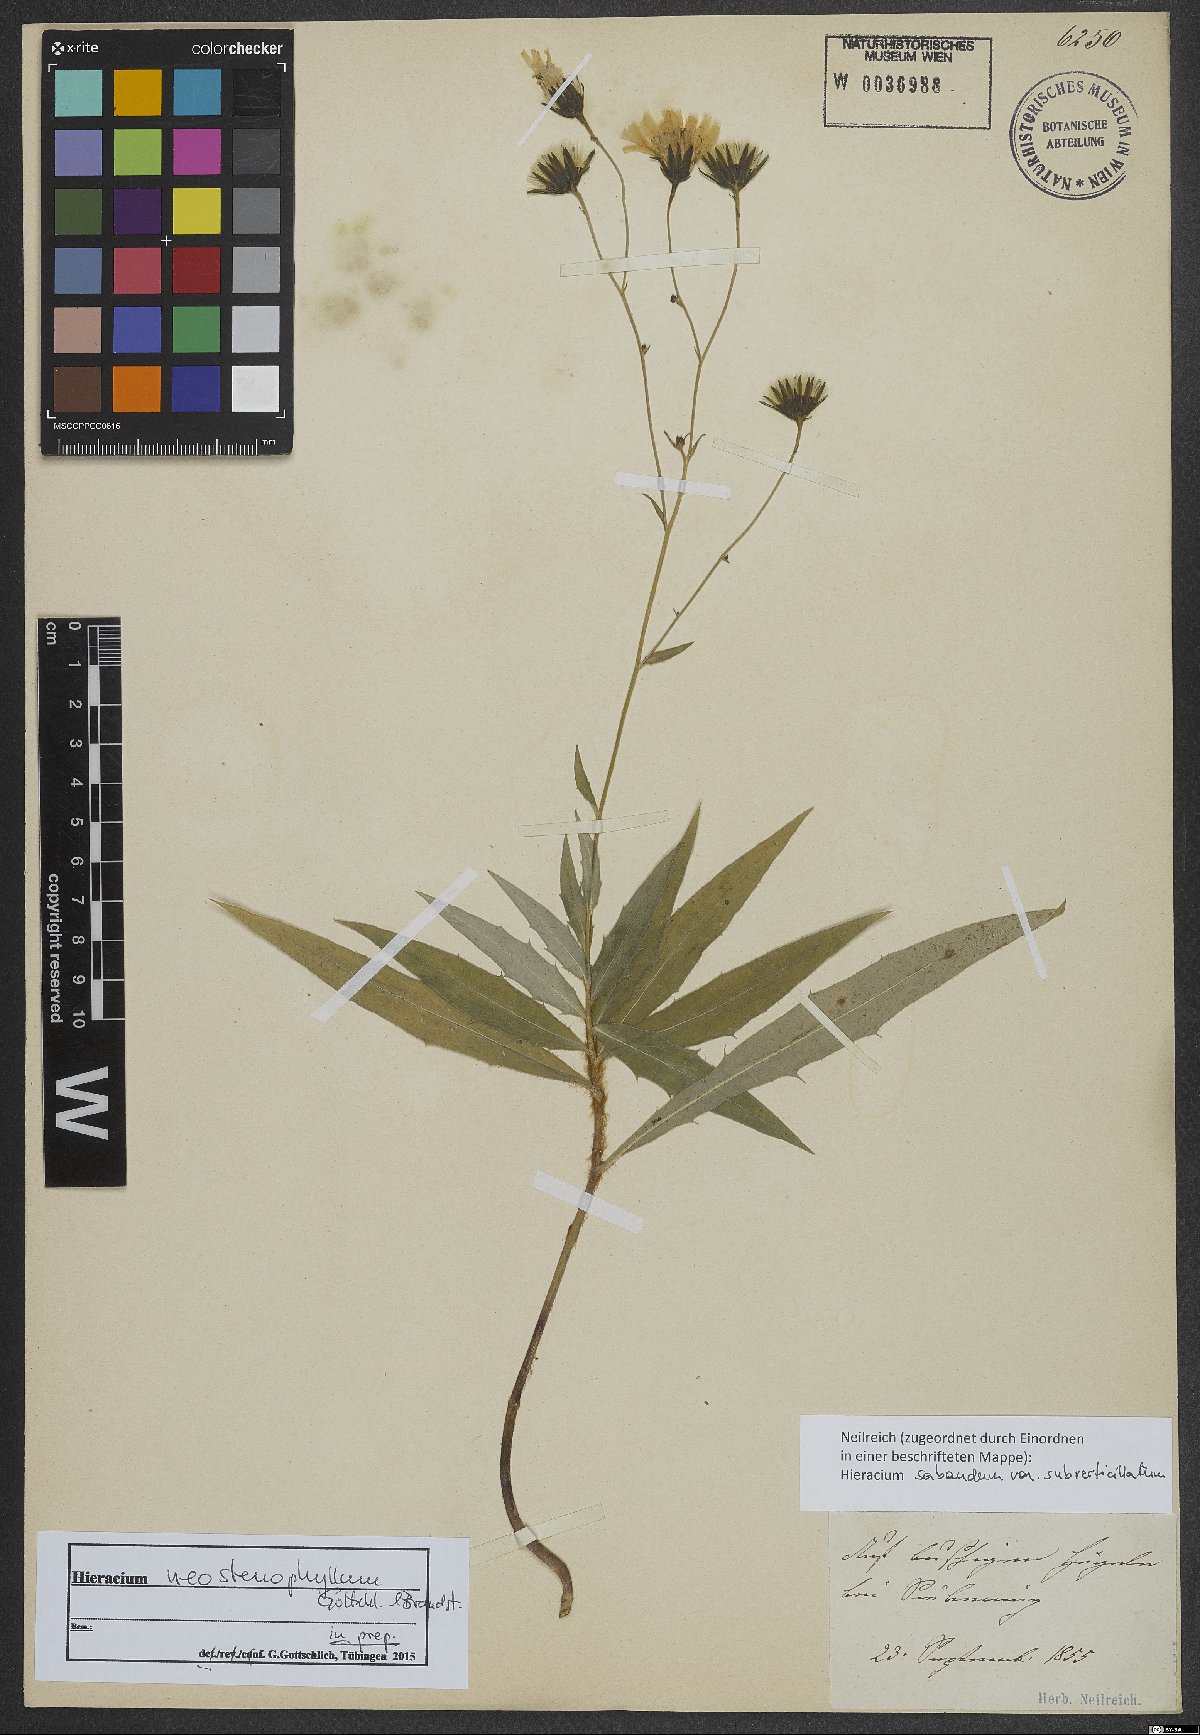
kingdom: Plantae
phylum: Tracheophyta
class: Magnoliopsida
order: Asterales
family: Asteraceae
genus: Hieracium
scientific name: Hieracium neostenophyllum
